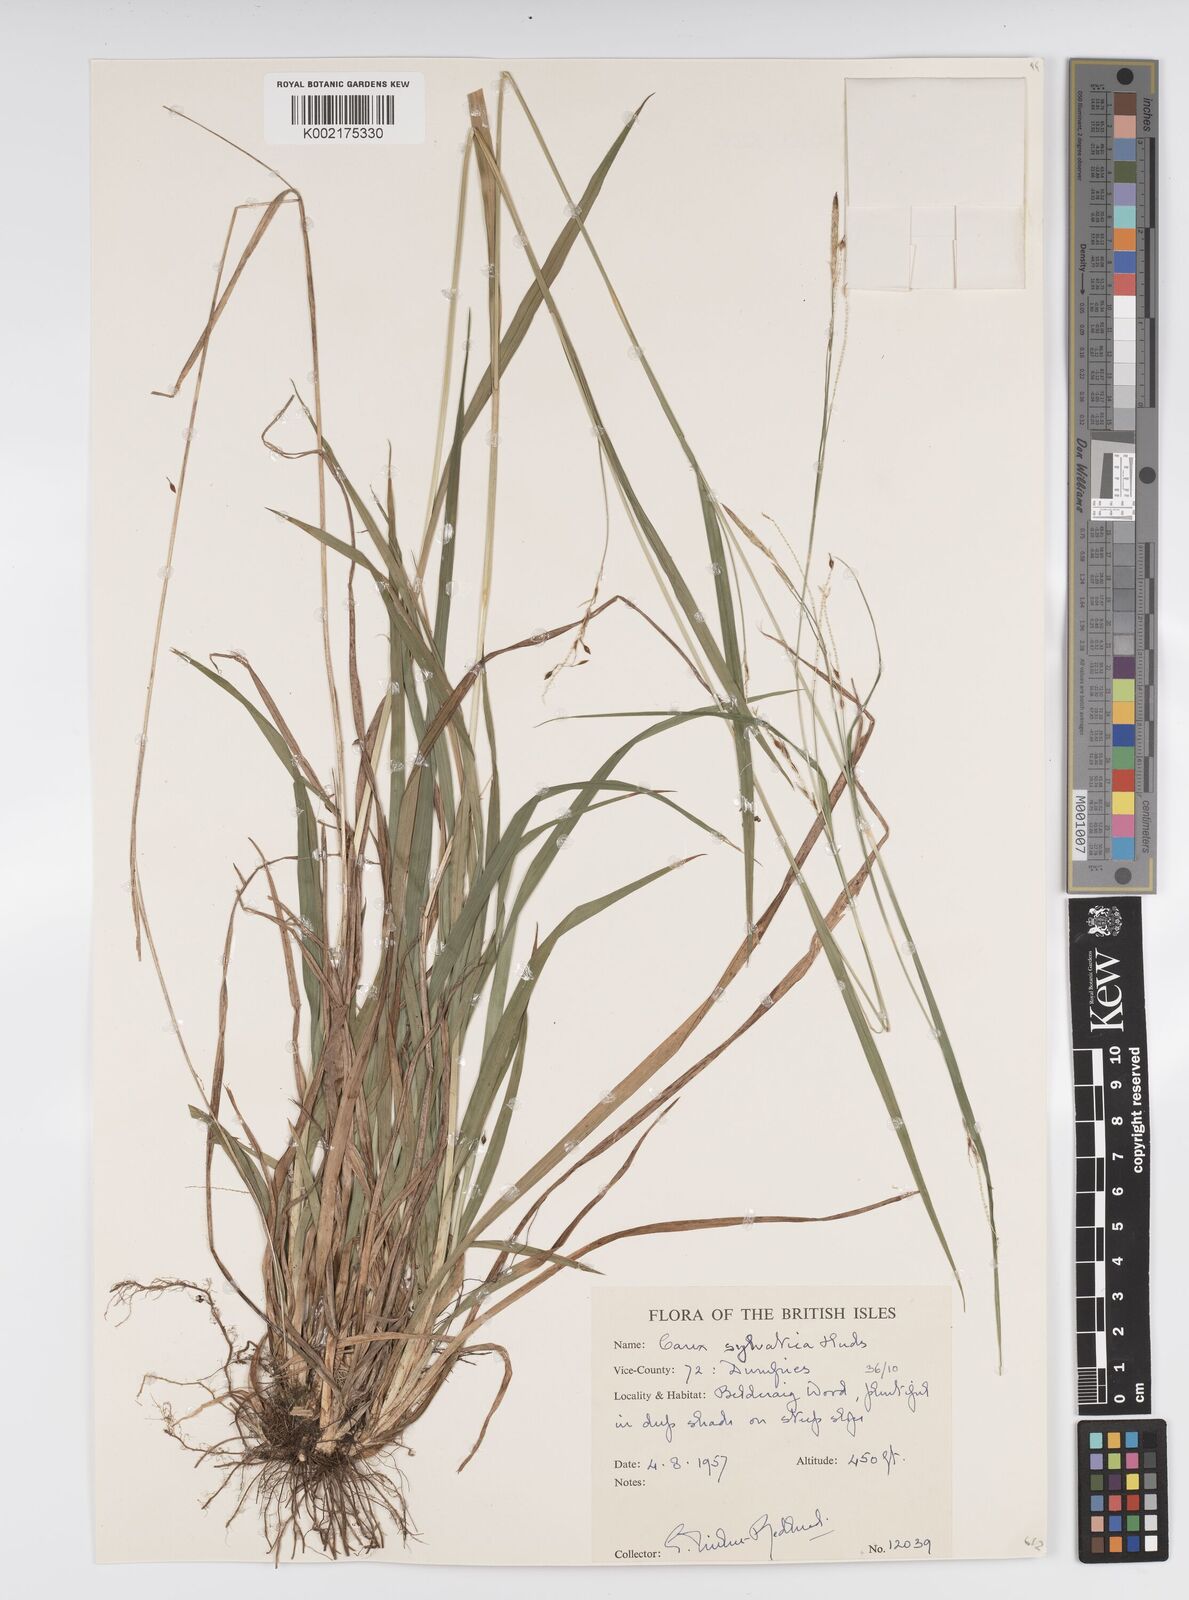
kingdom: Plantae
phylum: Tracheophyta
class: Liliopsida
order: Poales
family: Cyperaceae
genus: Carex
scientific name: Carex sylvatica
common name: Wood-sedge
